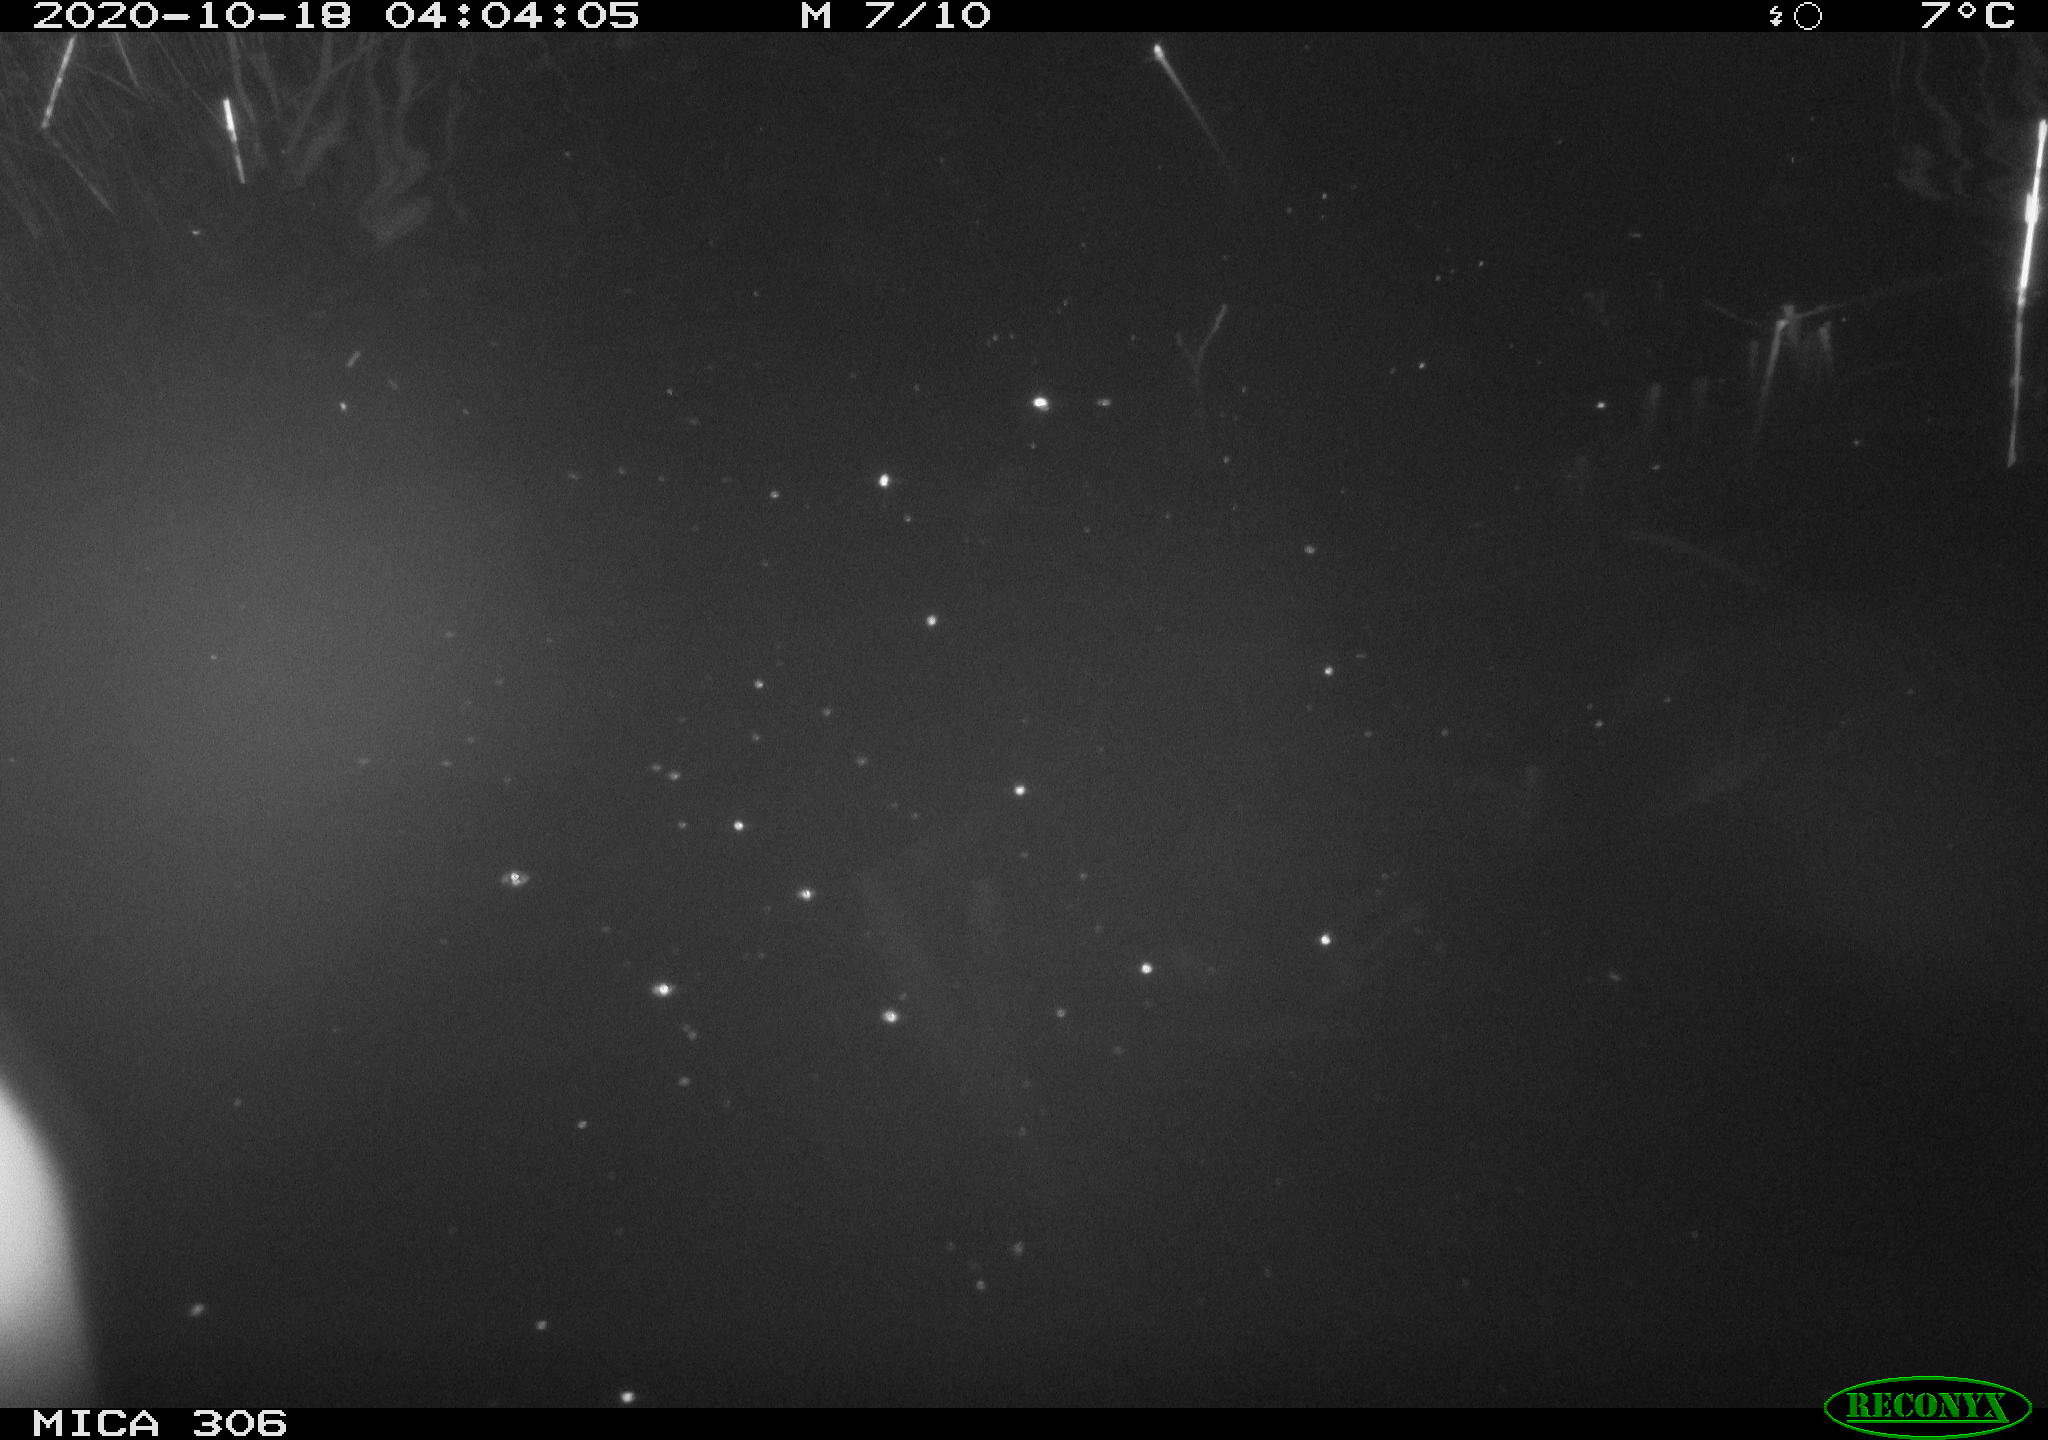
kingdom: Animalia
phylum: Chordata
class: Mammalia
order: Rodentia
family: Cricetidae
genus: Ondatra
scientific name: Ondatra zibethicus
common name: Muskrat
